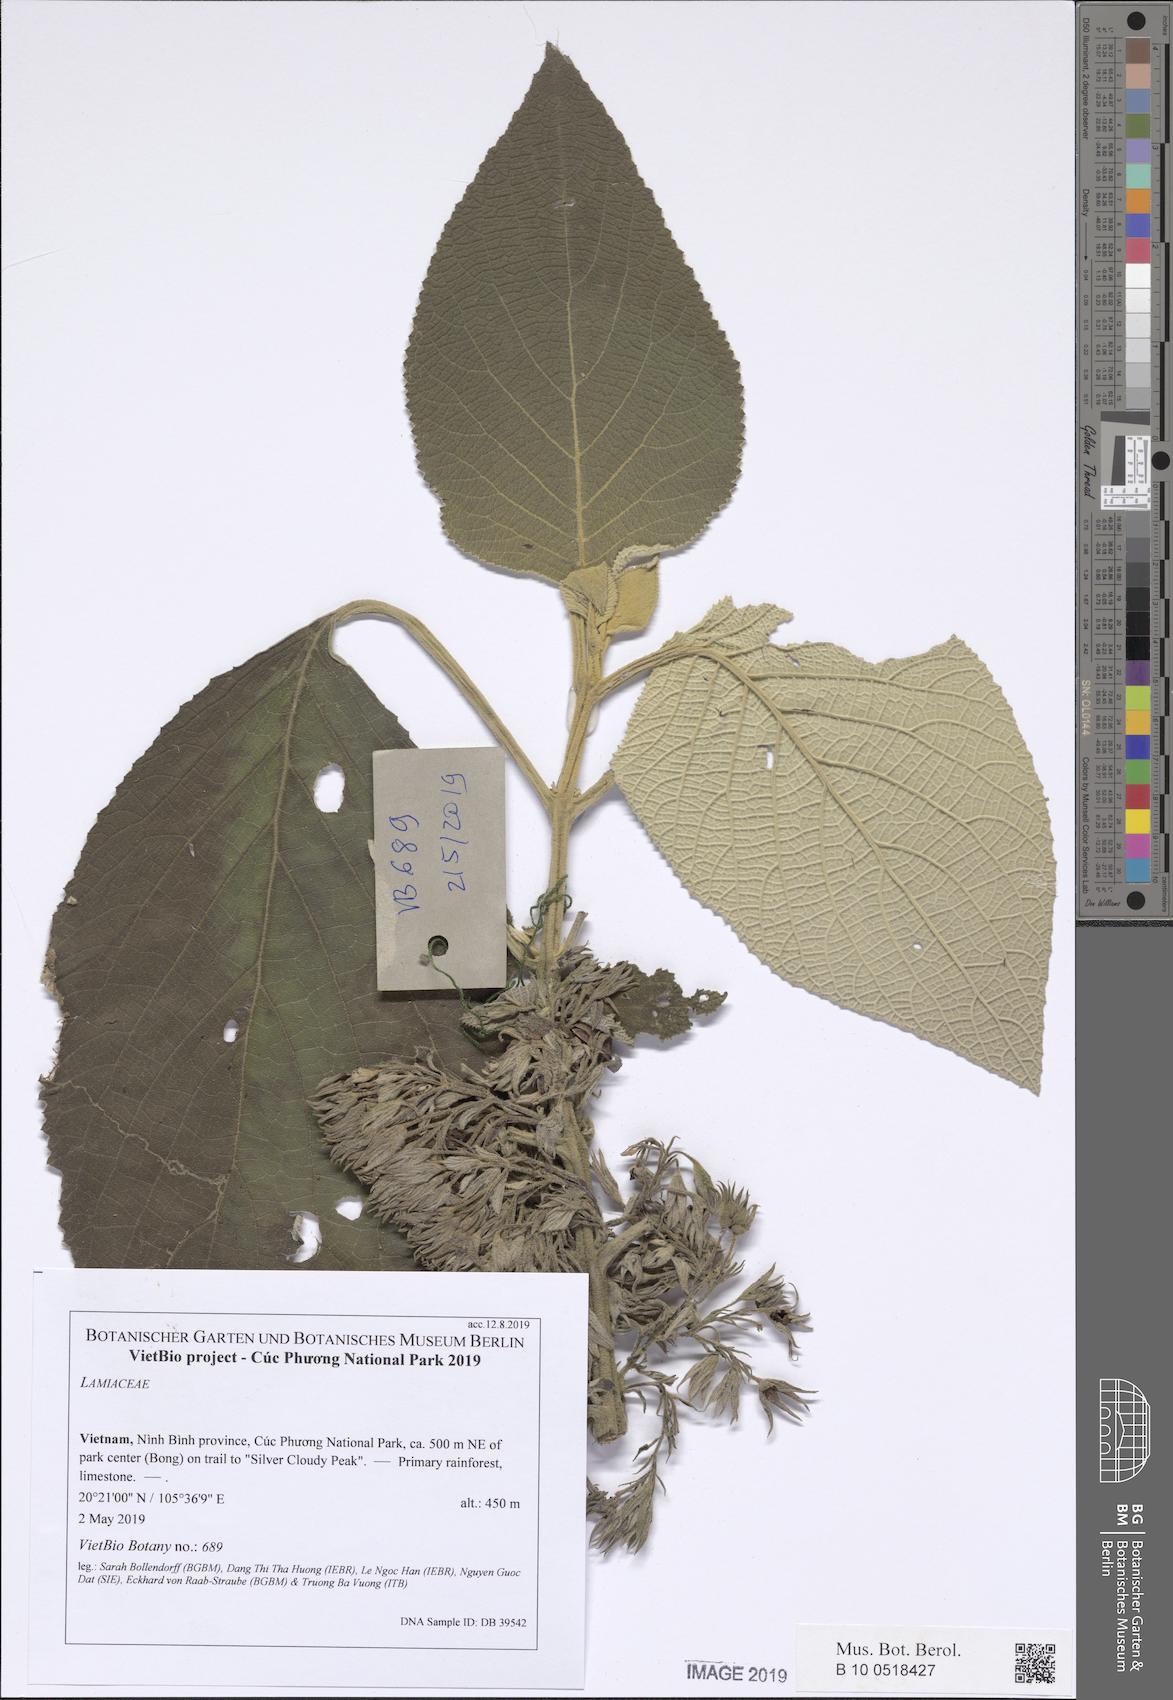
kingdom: Plantae
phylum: Tracheophyta
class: Magnoliopsida
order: Lamiales
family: Lamiaceae
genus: Gomphostemma
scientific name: Gomphostemma leptodon
